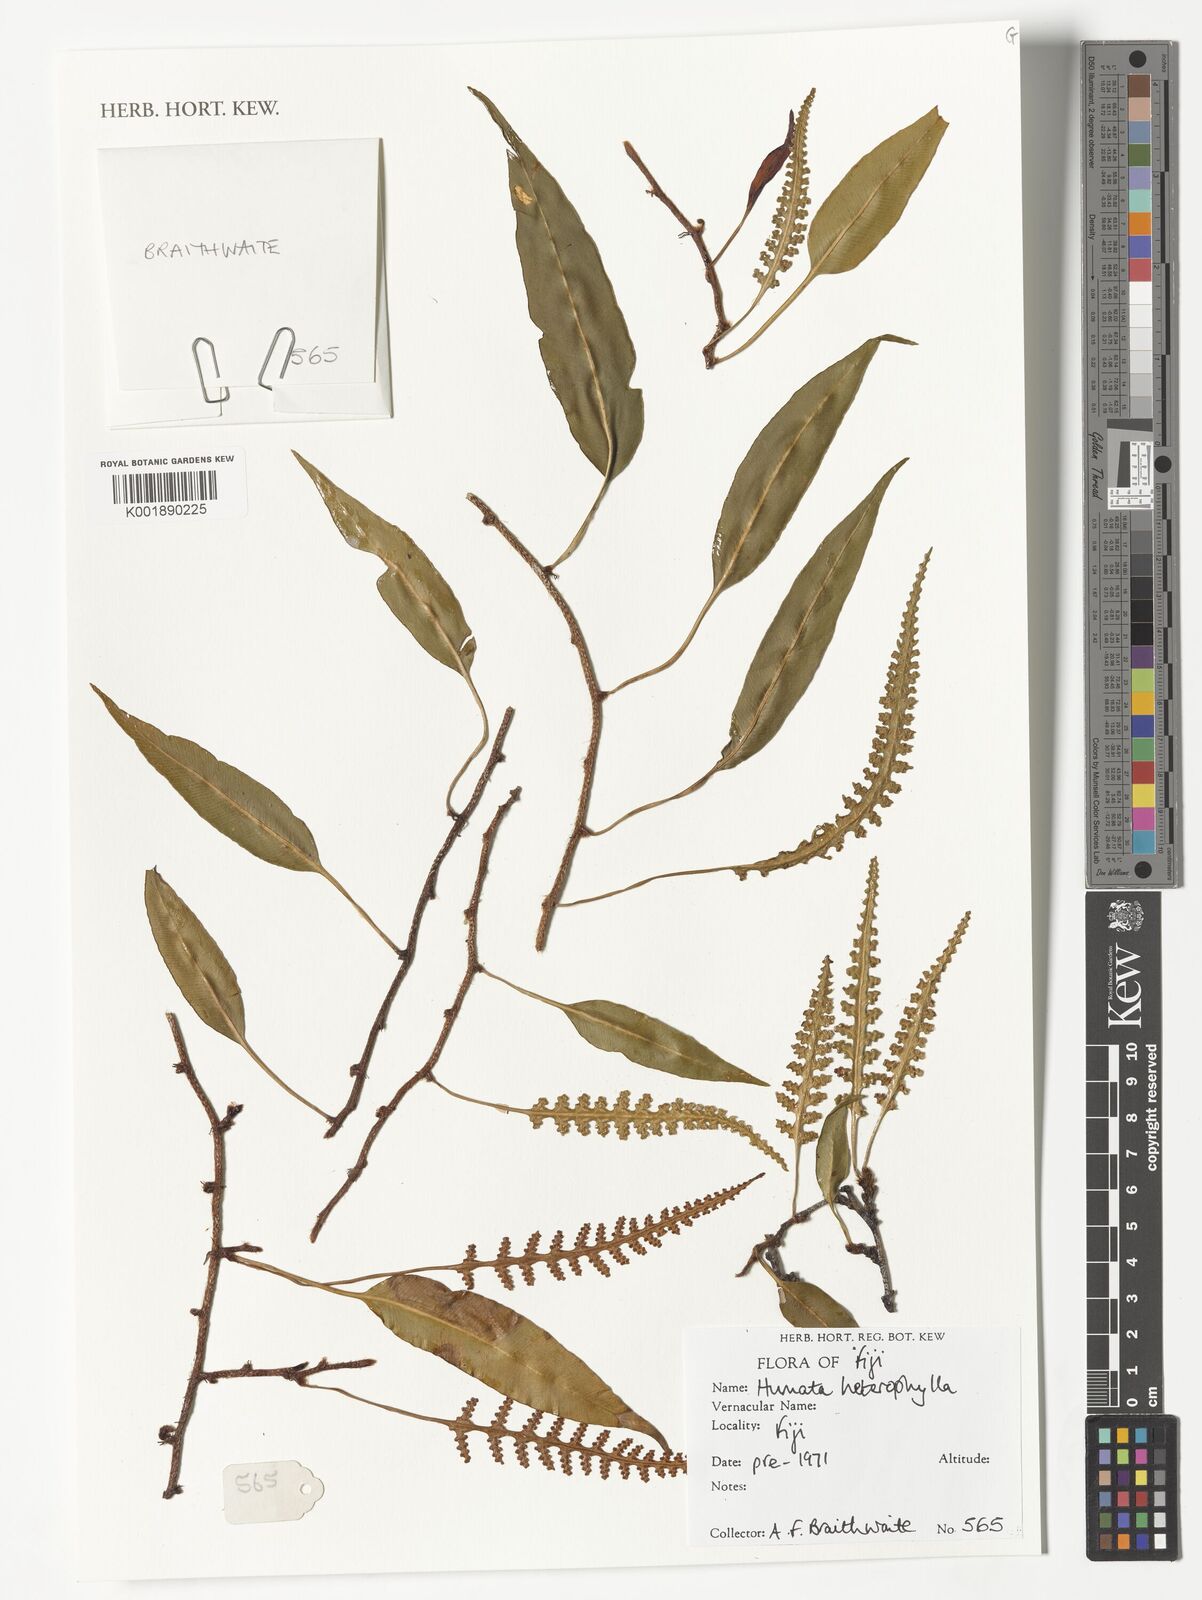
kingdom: Plantae
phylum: Tracheophyta
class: Polypodiopsida
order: Polypodiales
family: Davalliaceae
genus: Davallia
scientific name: Davallia heterophylla
